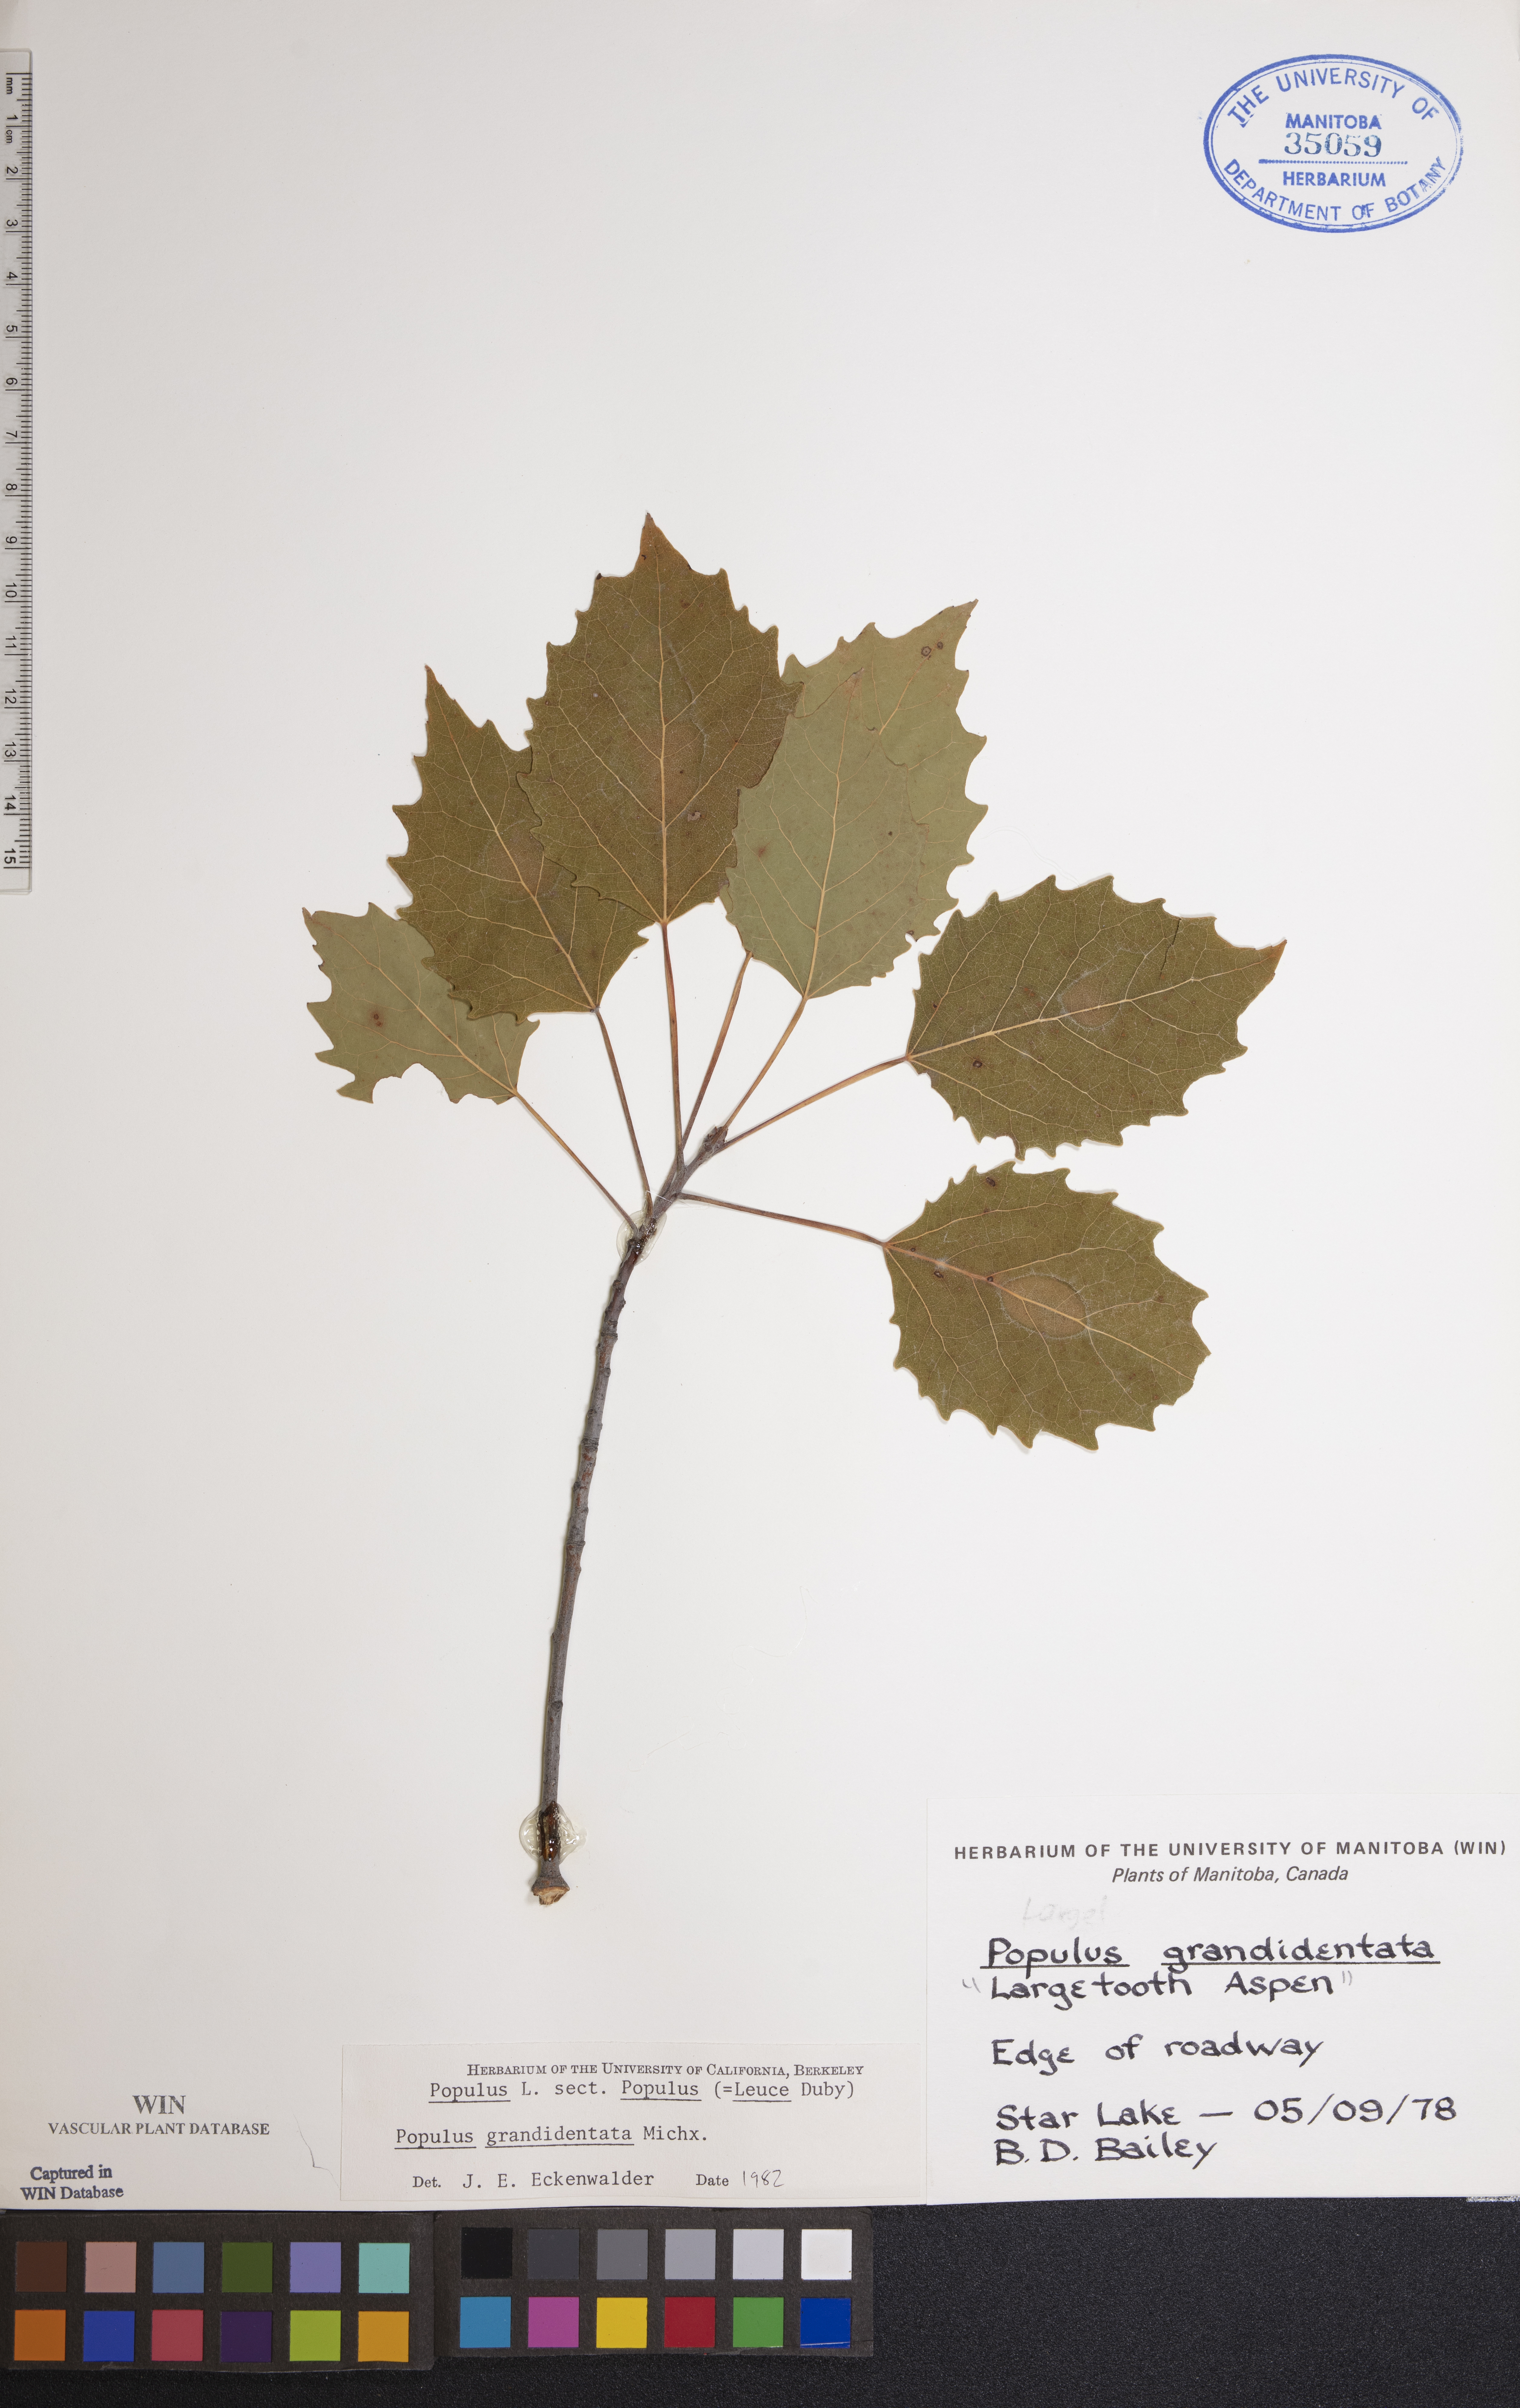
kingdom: Plantae
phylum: Tracheophyta
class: Magnoliopsida
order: Malpighiales
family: Salicaceae
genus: Populus
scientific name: Populus grandidentata
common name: Bigtooth aspen
